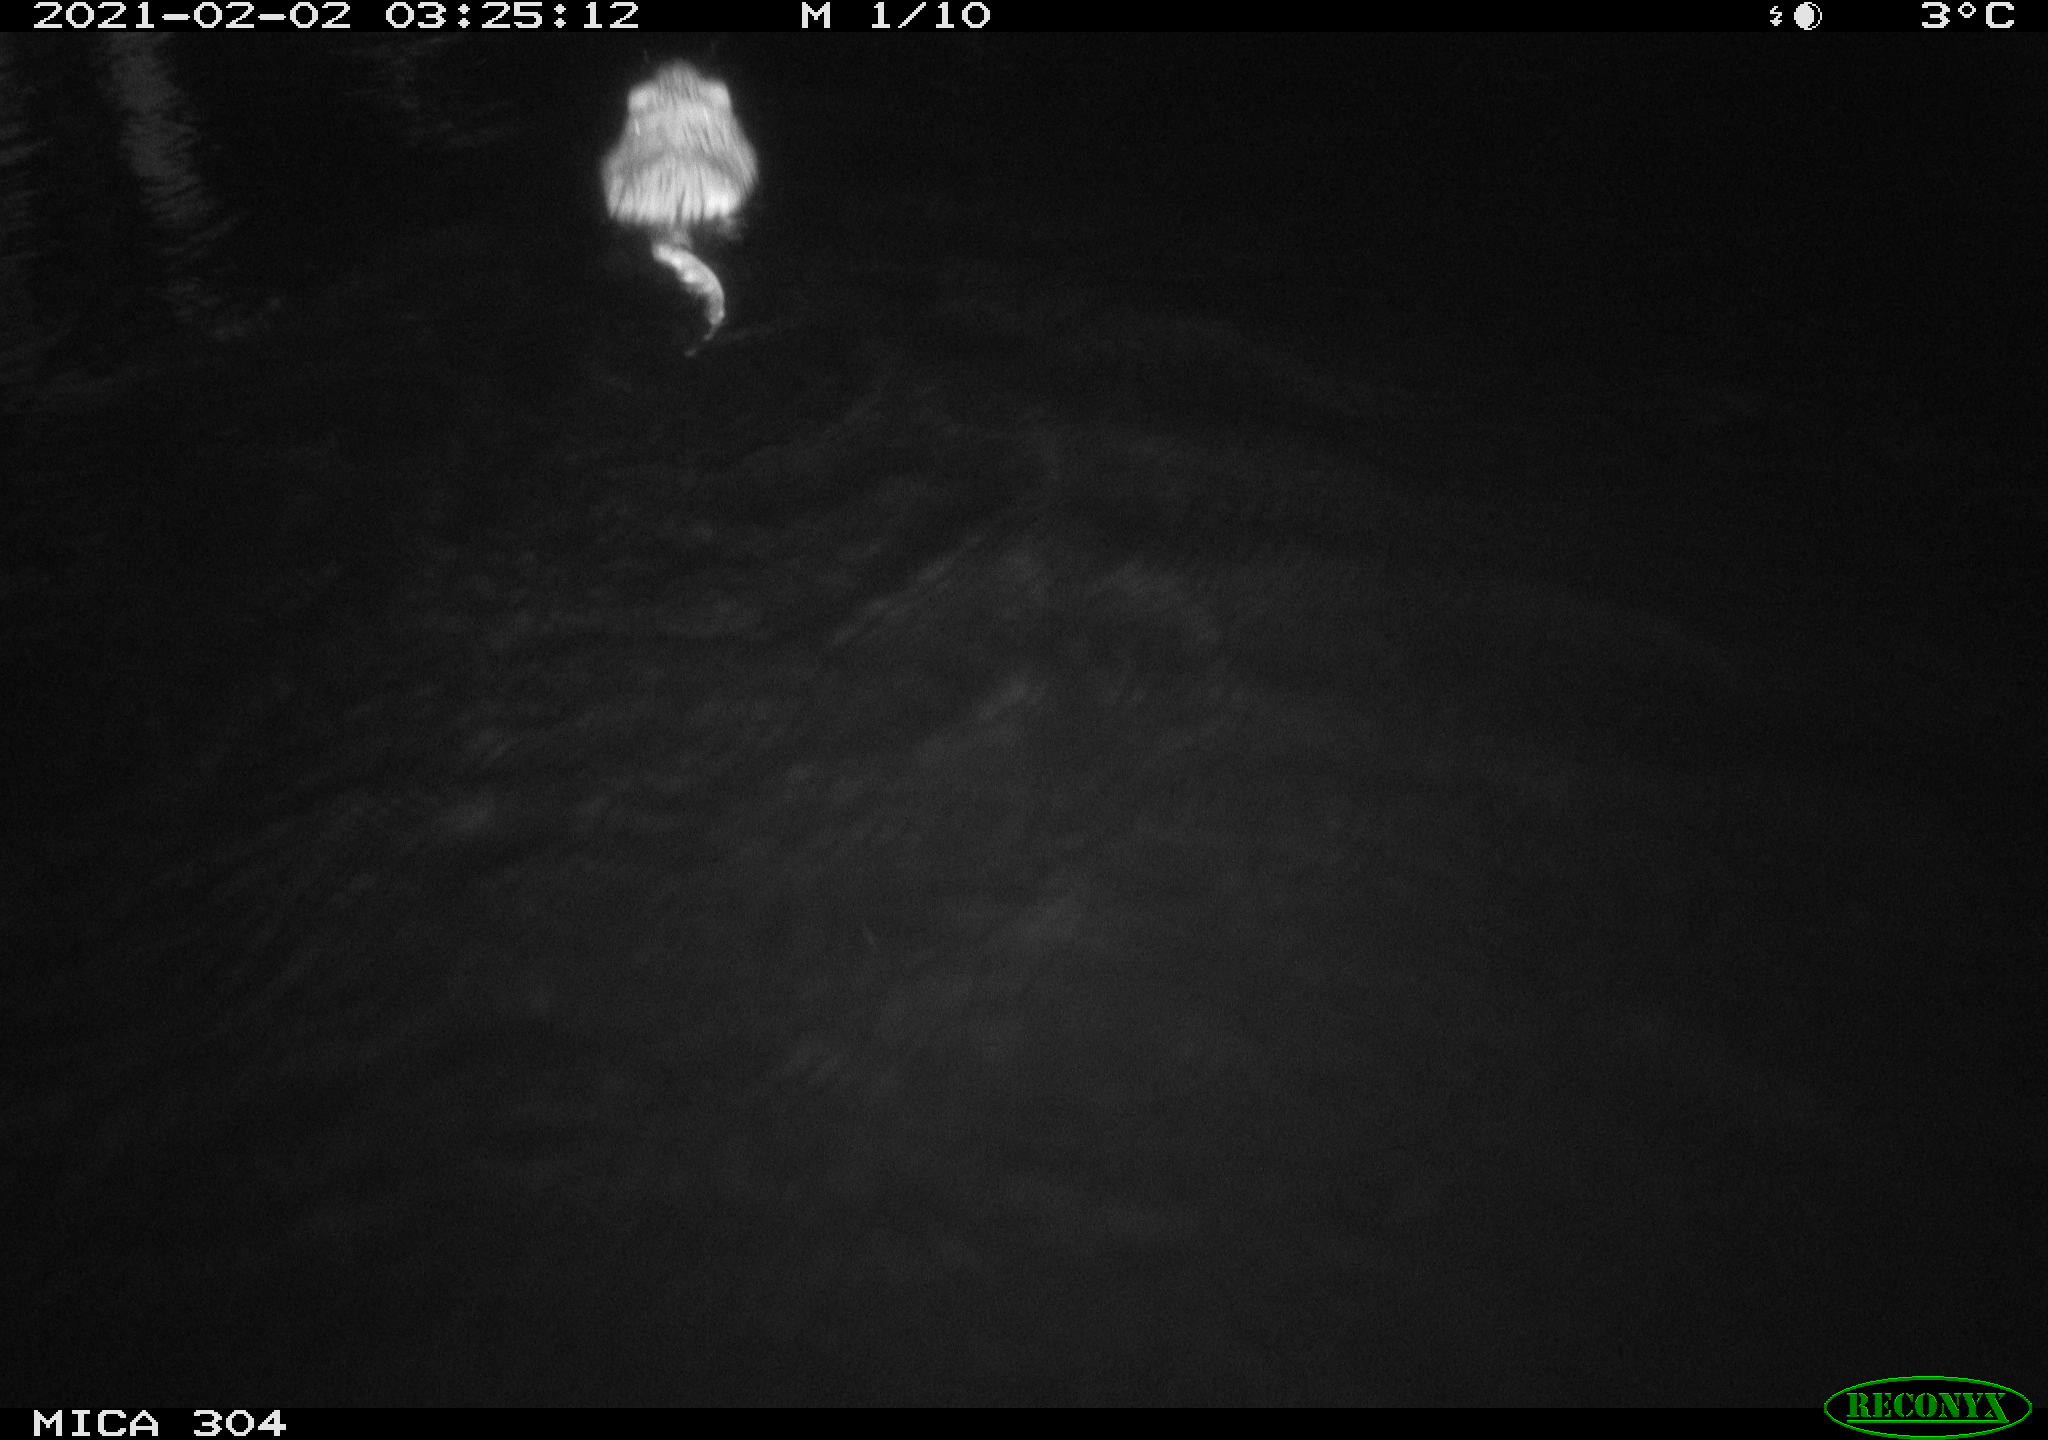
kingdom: Animalia
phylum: Chordata
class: Mammalia
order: Rodentia
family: Cricetidae
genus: Ondatra
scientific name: Ondatra zibethicus
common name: Muskrat
